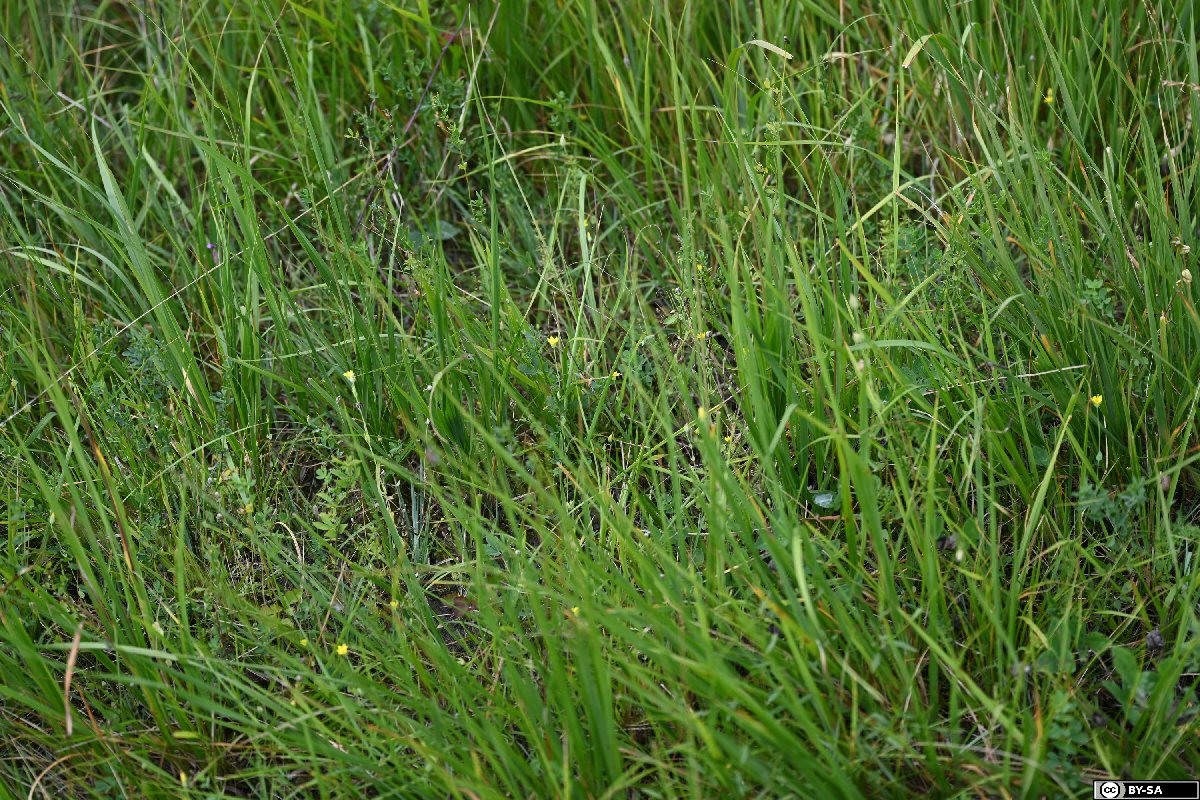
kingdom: Plantae
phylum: Tracheophyta
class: Magnoliopsida
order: Gentianales
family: Gentianaceae
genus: Blackstonia
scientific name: Blackstonia acuminata
